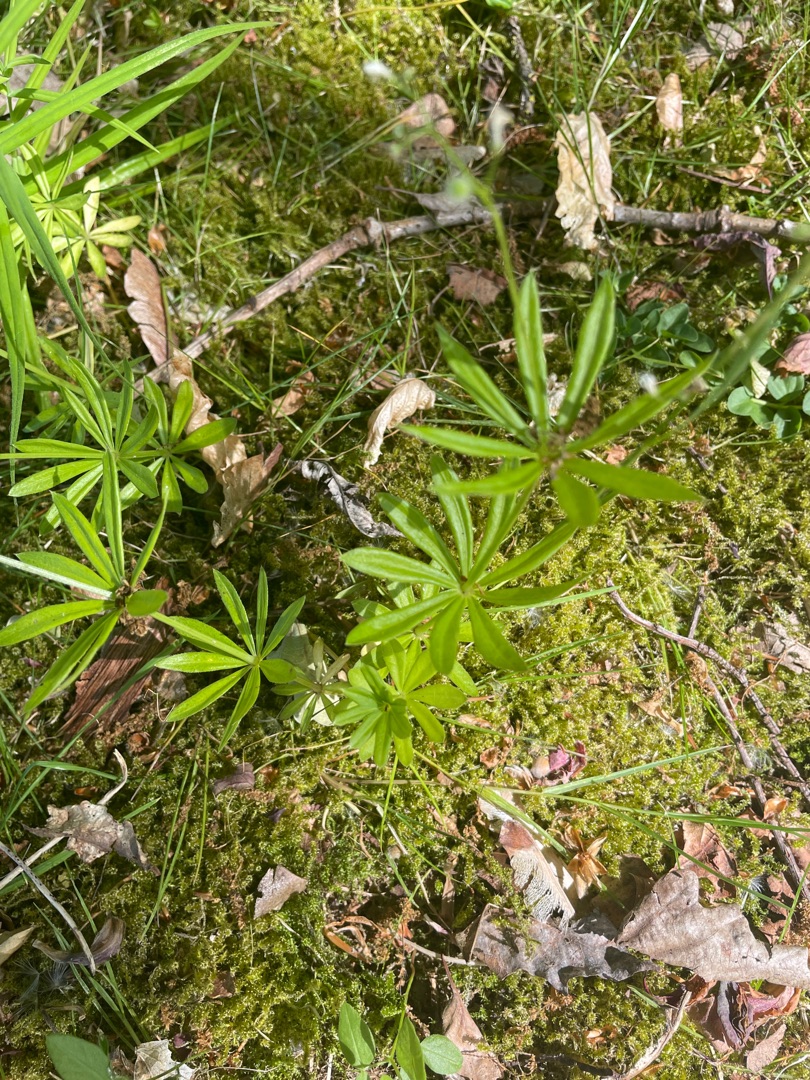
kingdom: Plantae
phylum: Tracheophyta
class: Magnoliopsida
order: Gentianales
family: Rubiaceae
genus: Galium
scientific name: Galium odoratum
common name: Skovmærke
